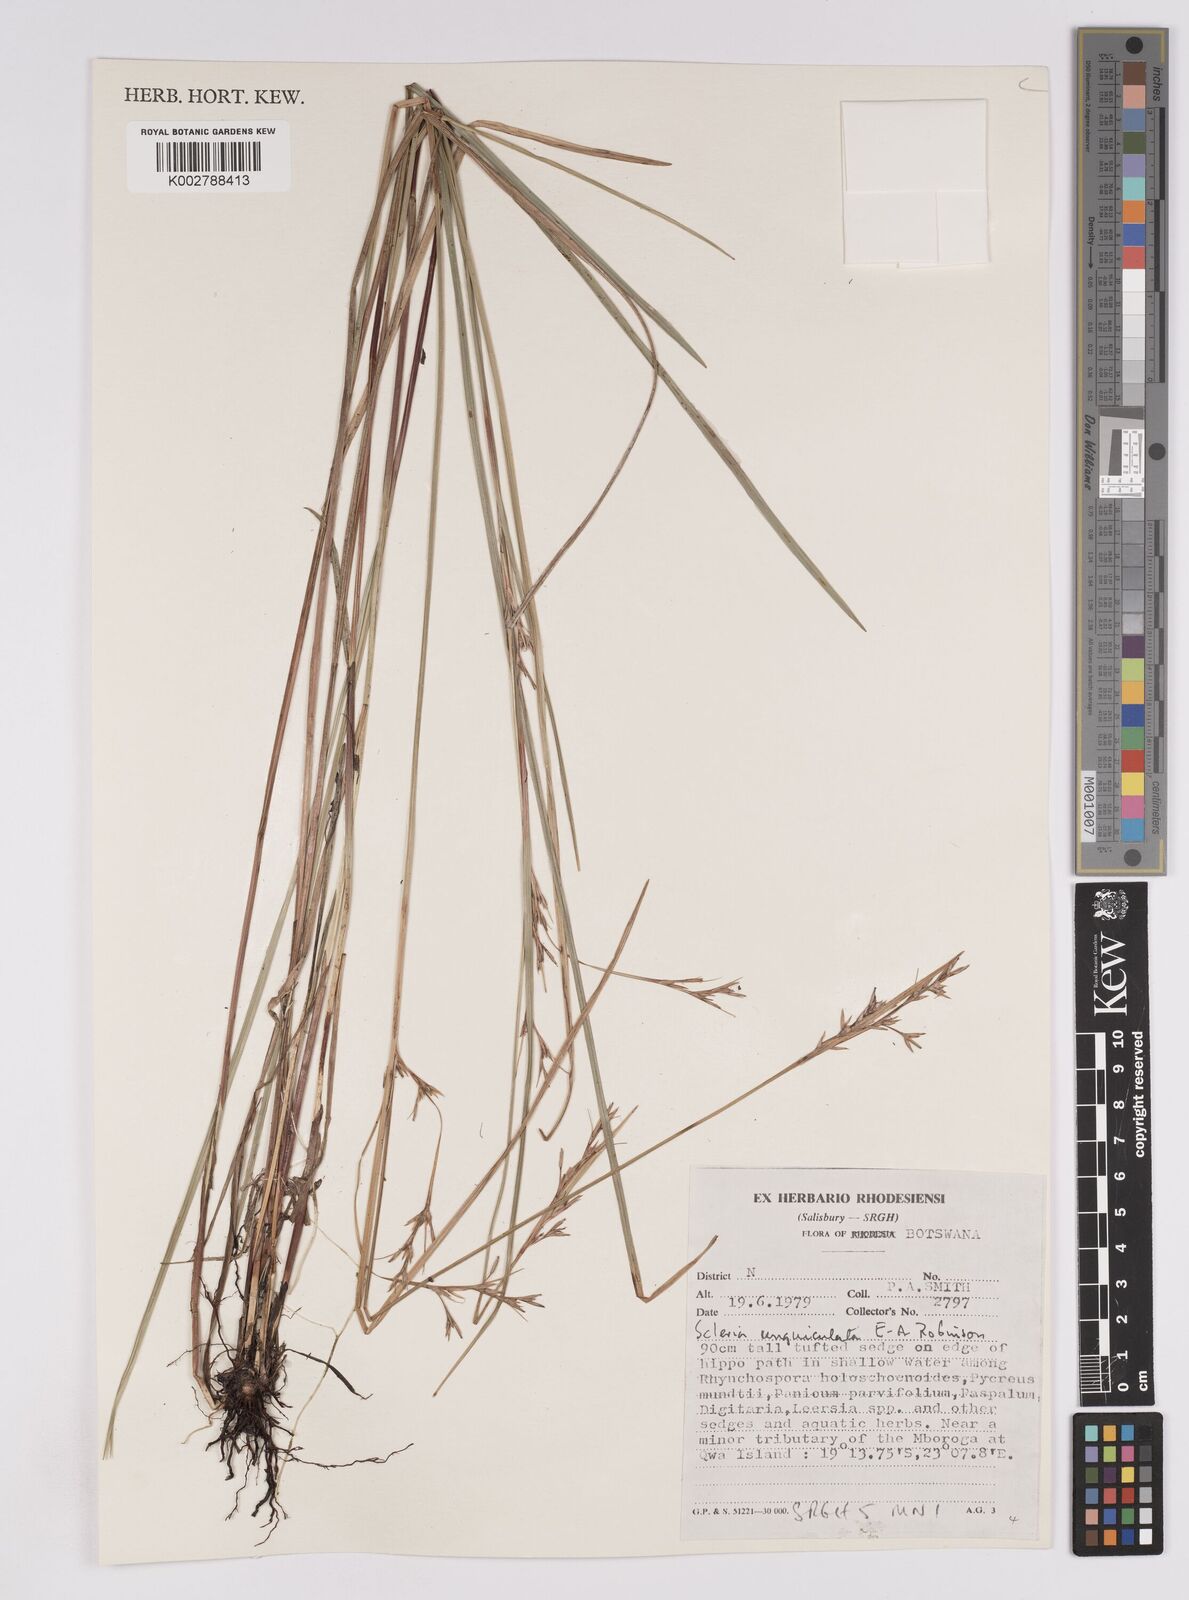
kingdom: Plantae
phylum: Tracheophyta
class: Liliopsida
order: Poales
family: Cyperaceae
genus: Scleria
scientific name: Scleria unguiculata
